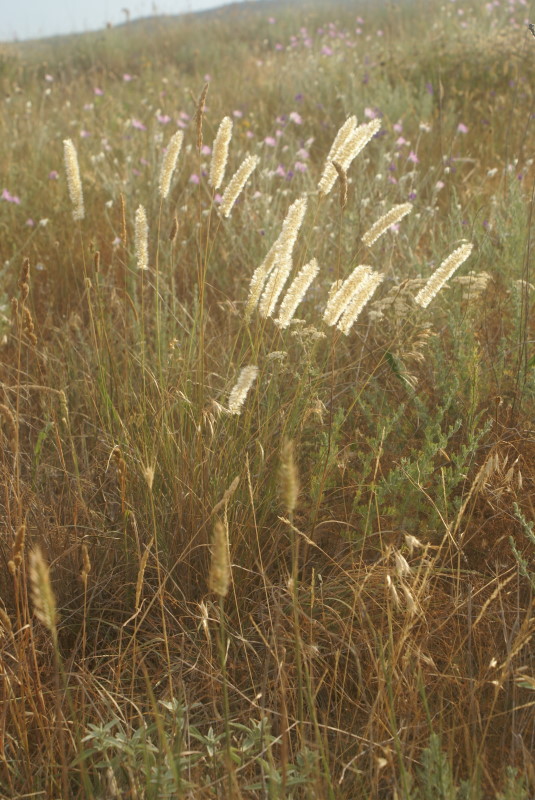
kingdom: Plantae
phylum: Tracheophyta
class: Liliopsida
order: Poales
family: Poaceae
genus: Alopecurus
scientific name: Alopecurus pratensis
